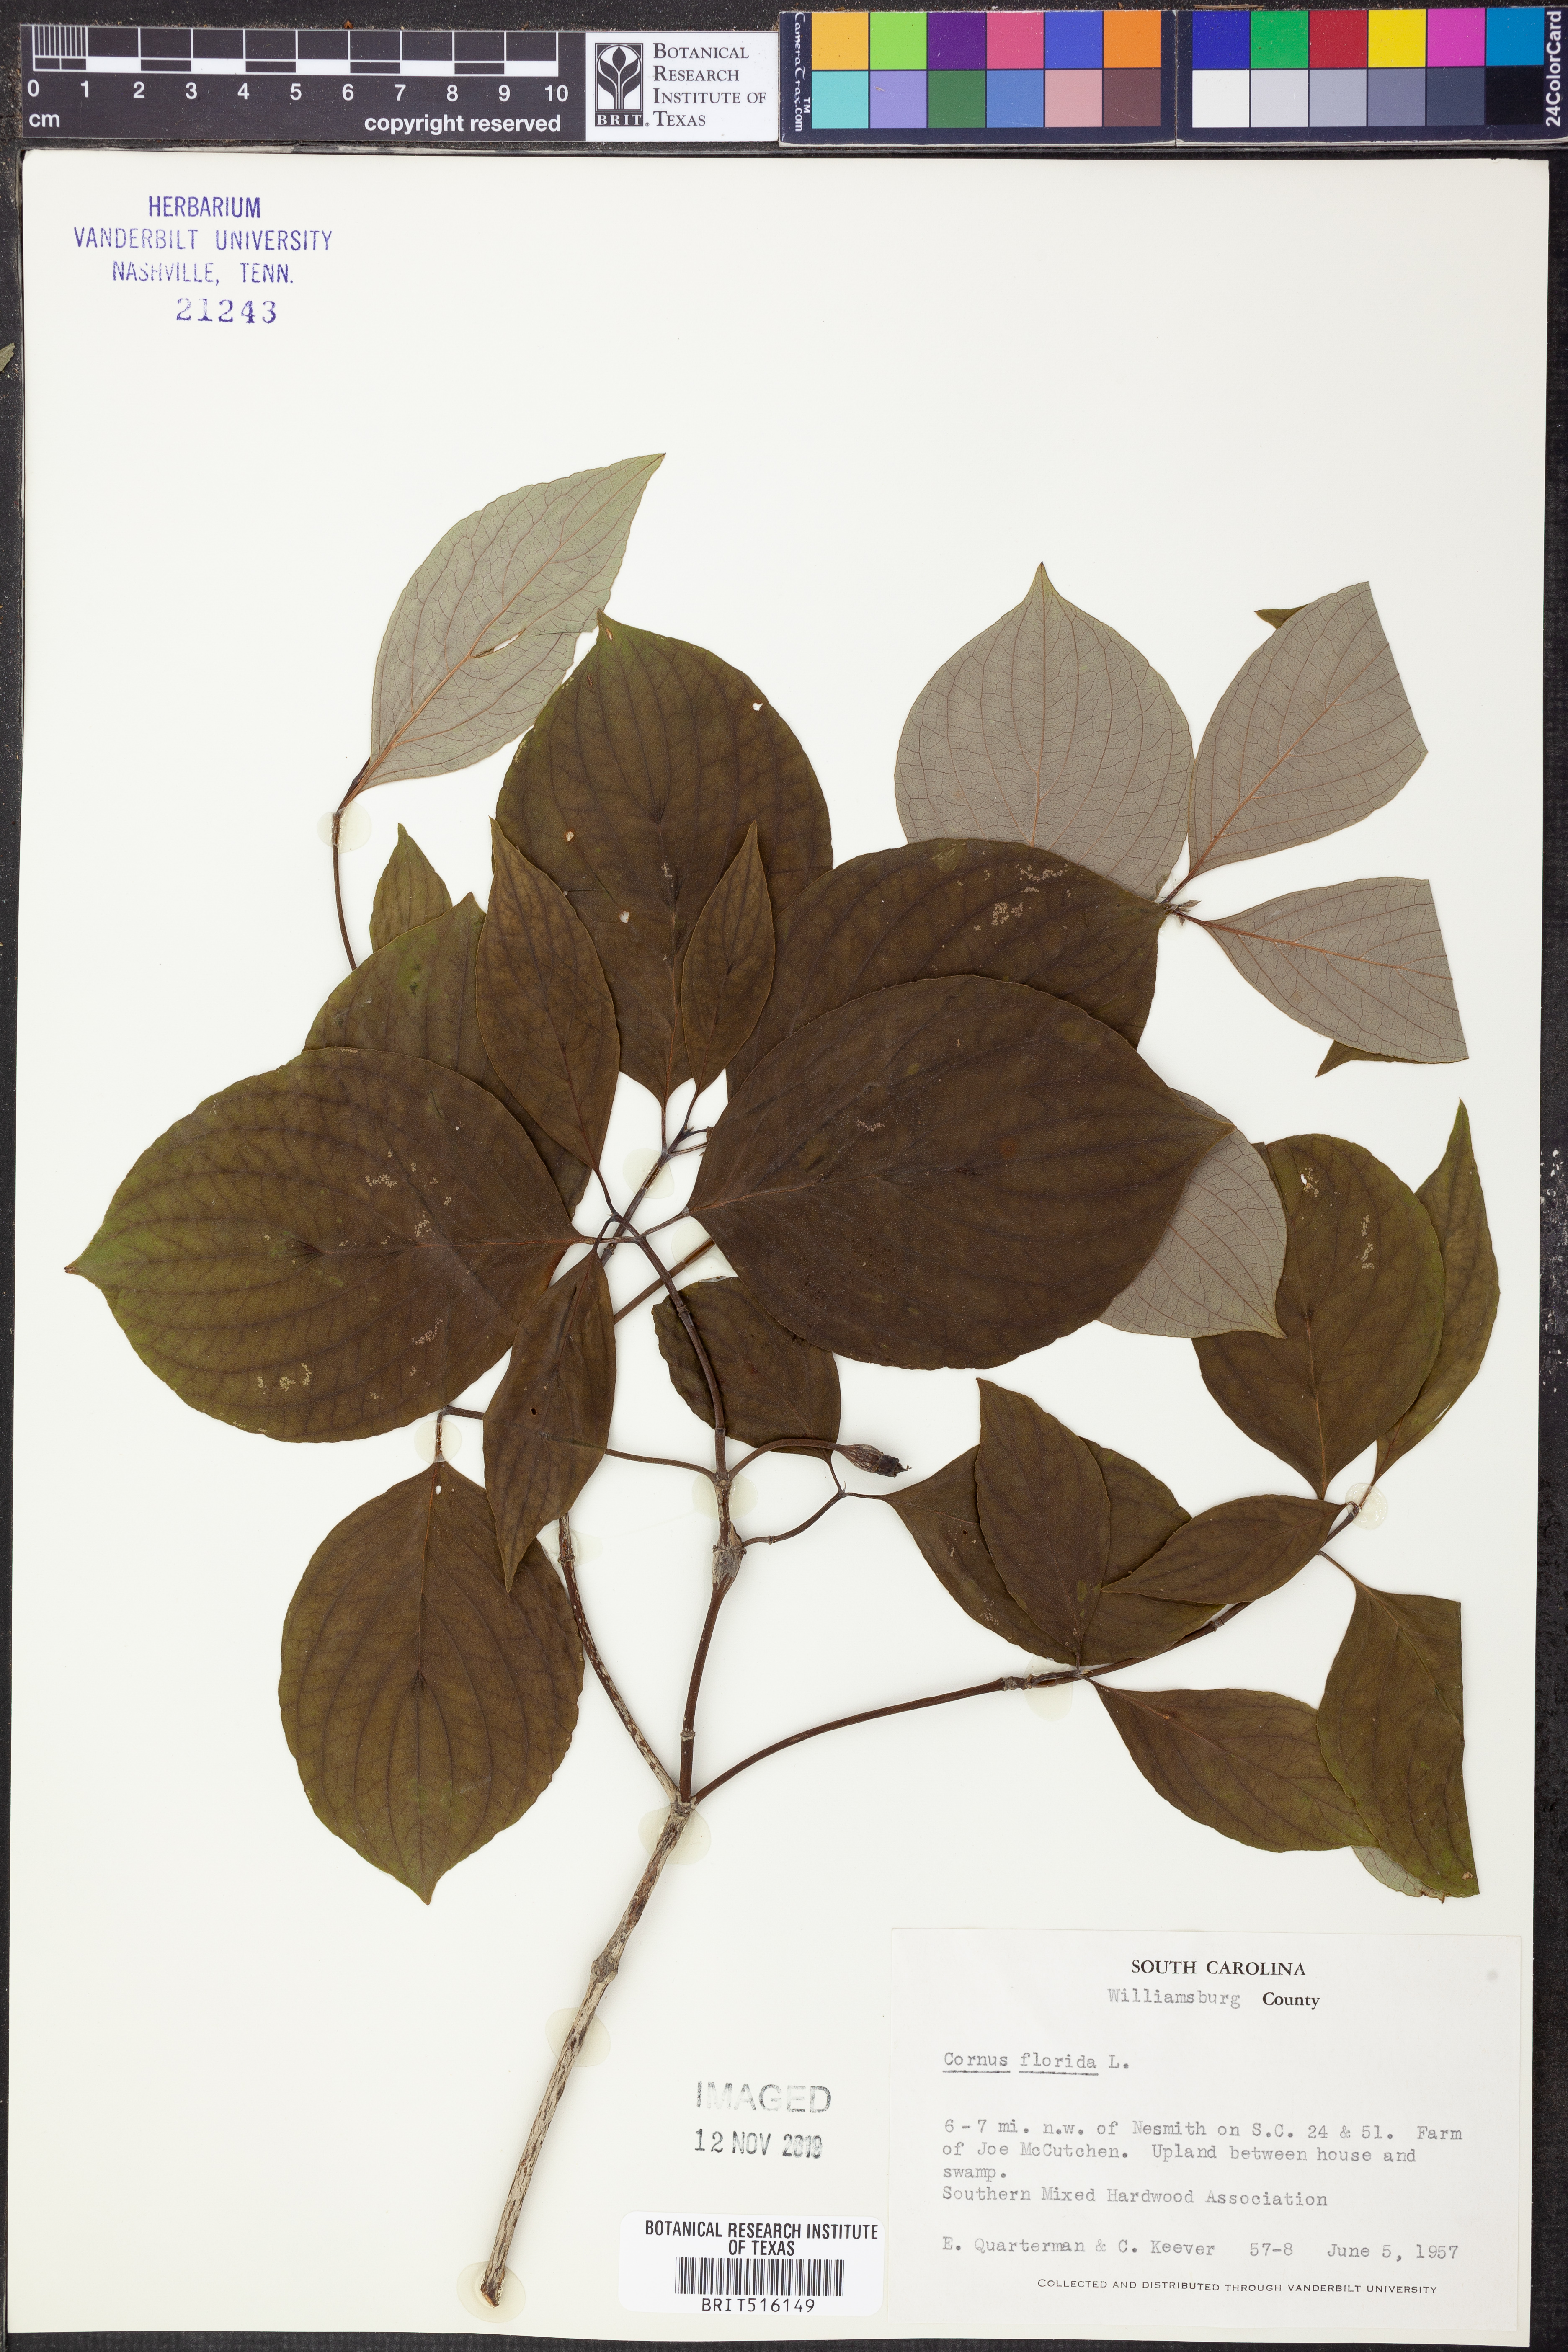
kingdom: Plantae
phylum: Tracheophyta
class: Magnoliopsida
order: Cornales
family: Cornaceae
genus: Cornus
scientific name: Cornus florida
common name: Flowering dogwood
